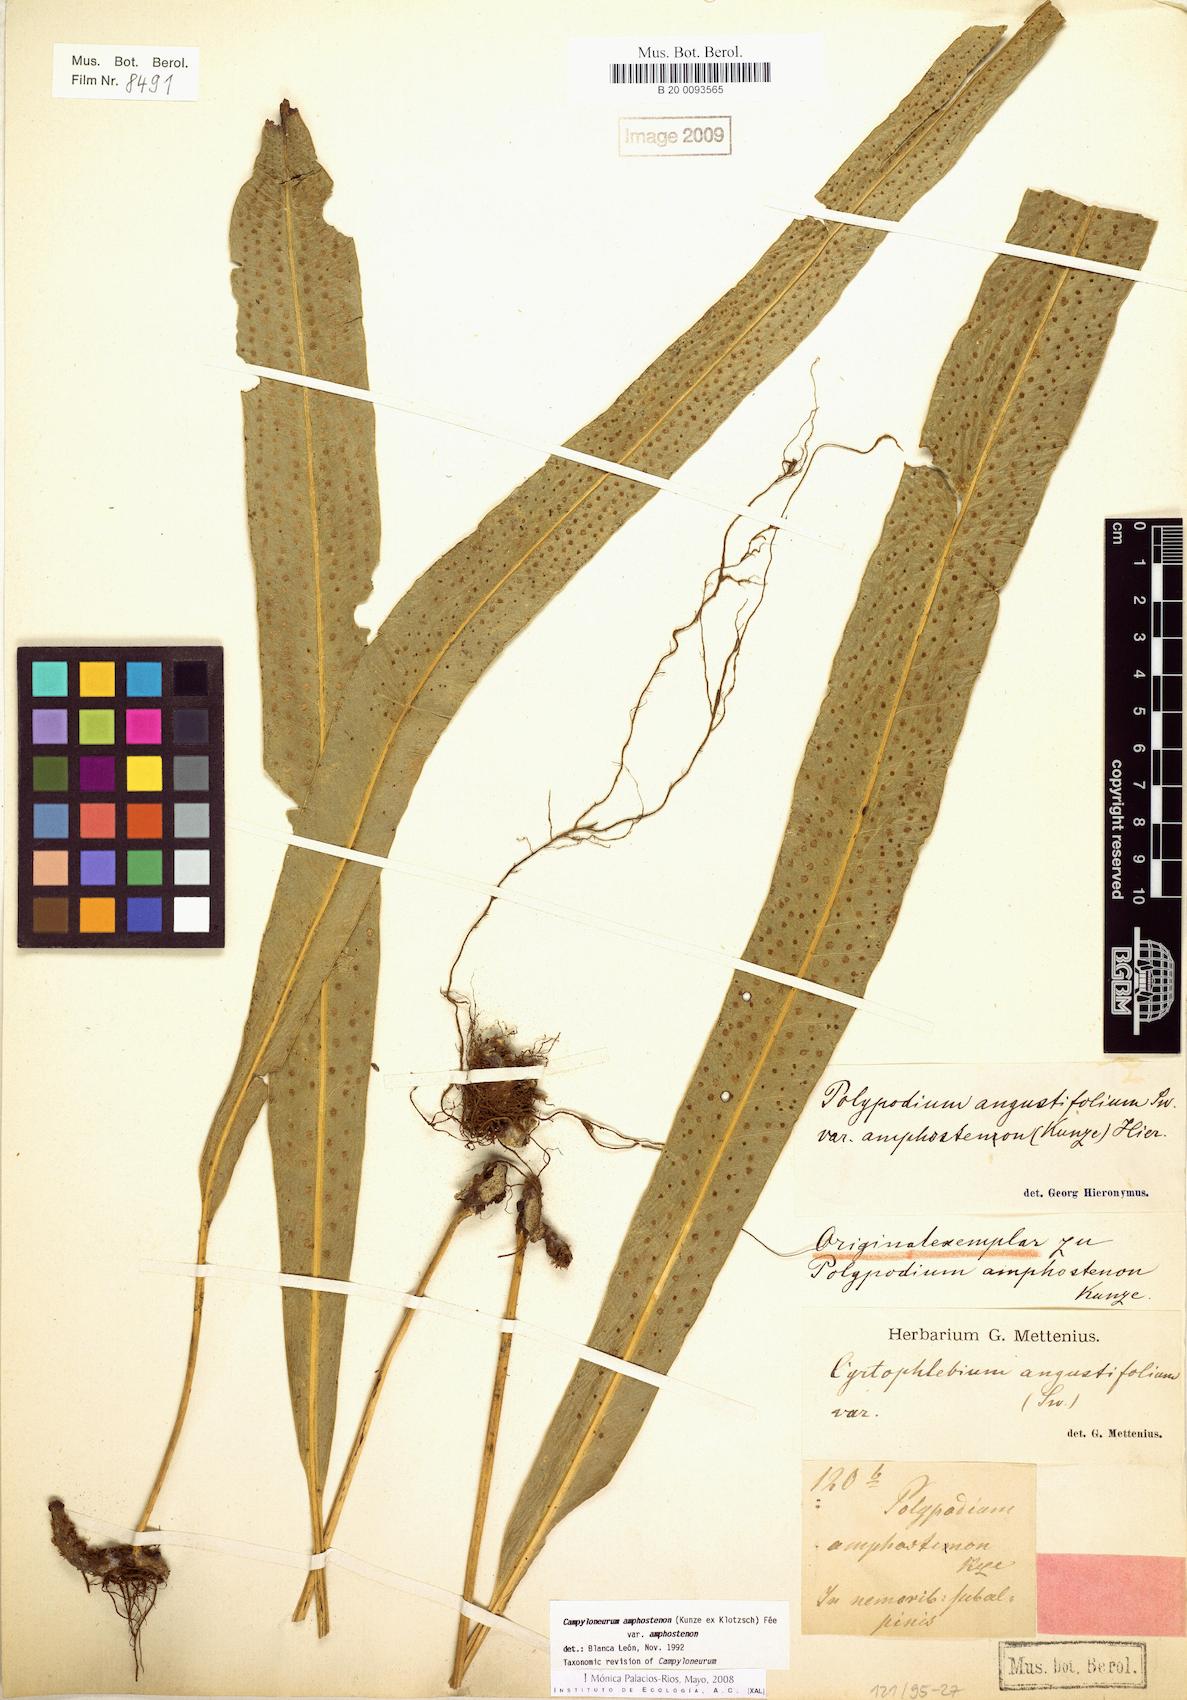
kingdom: Plantae
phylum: Tracheophyta
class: Polypodiopsida
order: Polypodiales
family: Polypodiaceae
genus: Campyloneurum
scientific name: Campyloneurum amphostenon
